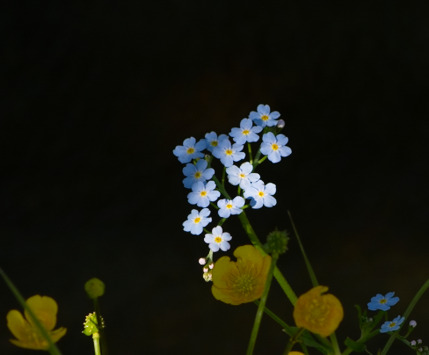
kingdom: Plantae
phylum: Tracheophyta
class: Magnoliopsida
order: Boraginales
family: Boraginaceae
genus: Myosotis
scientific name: Myosotis scorpioides
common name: Eng-forglemmigej
